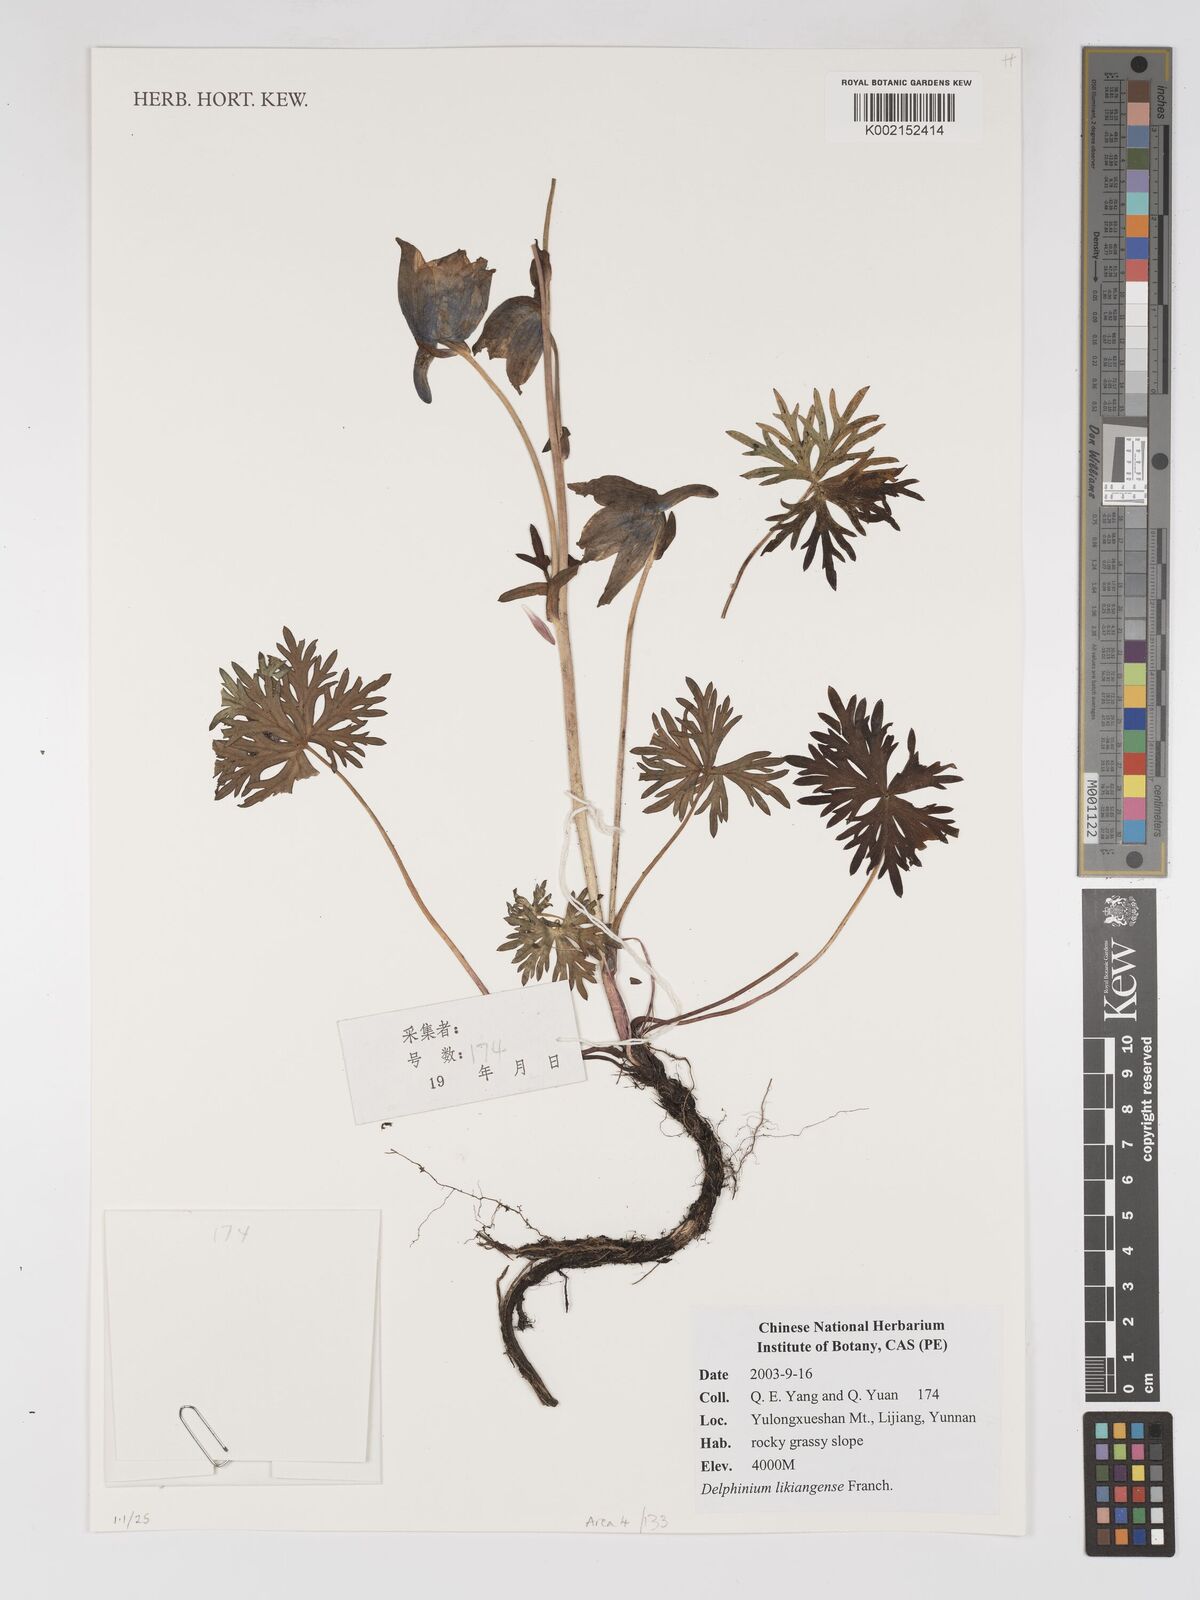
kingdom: Plantae
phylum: Tracheophyta
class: Magnoliopsida
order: Ranunculales
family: Ranunculaceae
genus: Delphinium
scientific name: Delphinium likiangense
